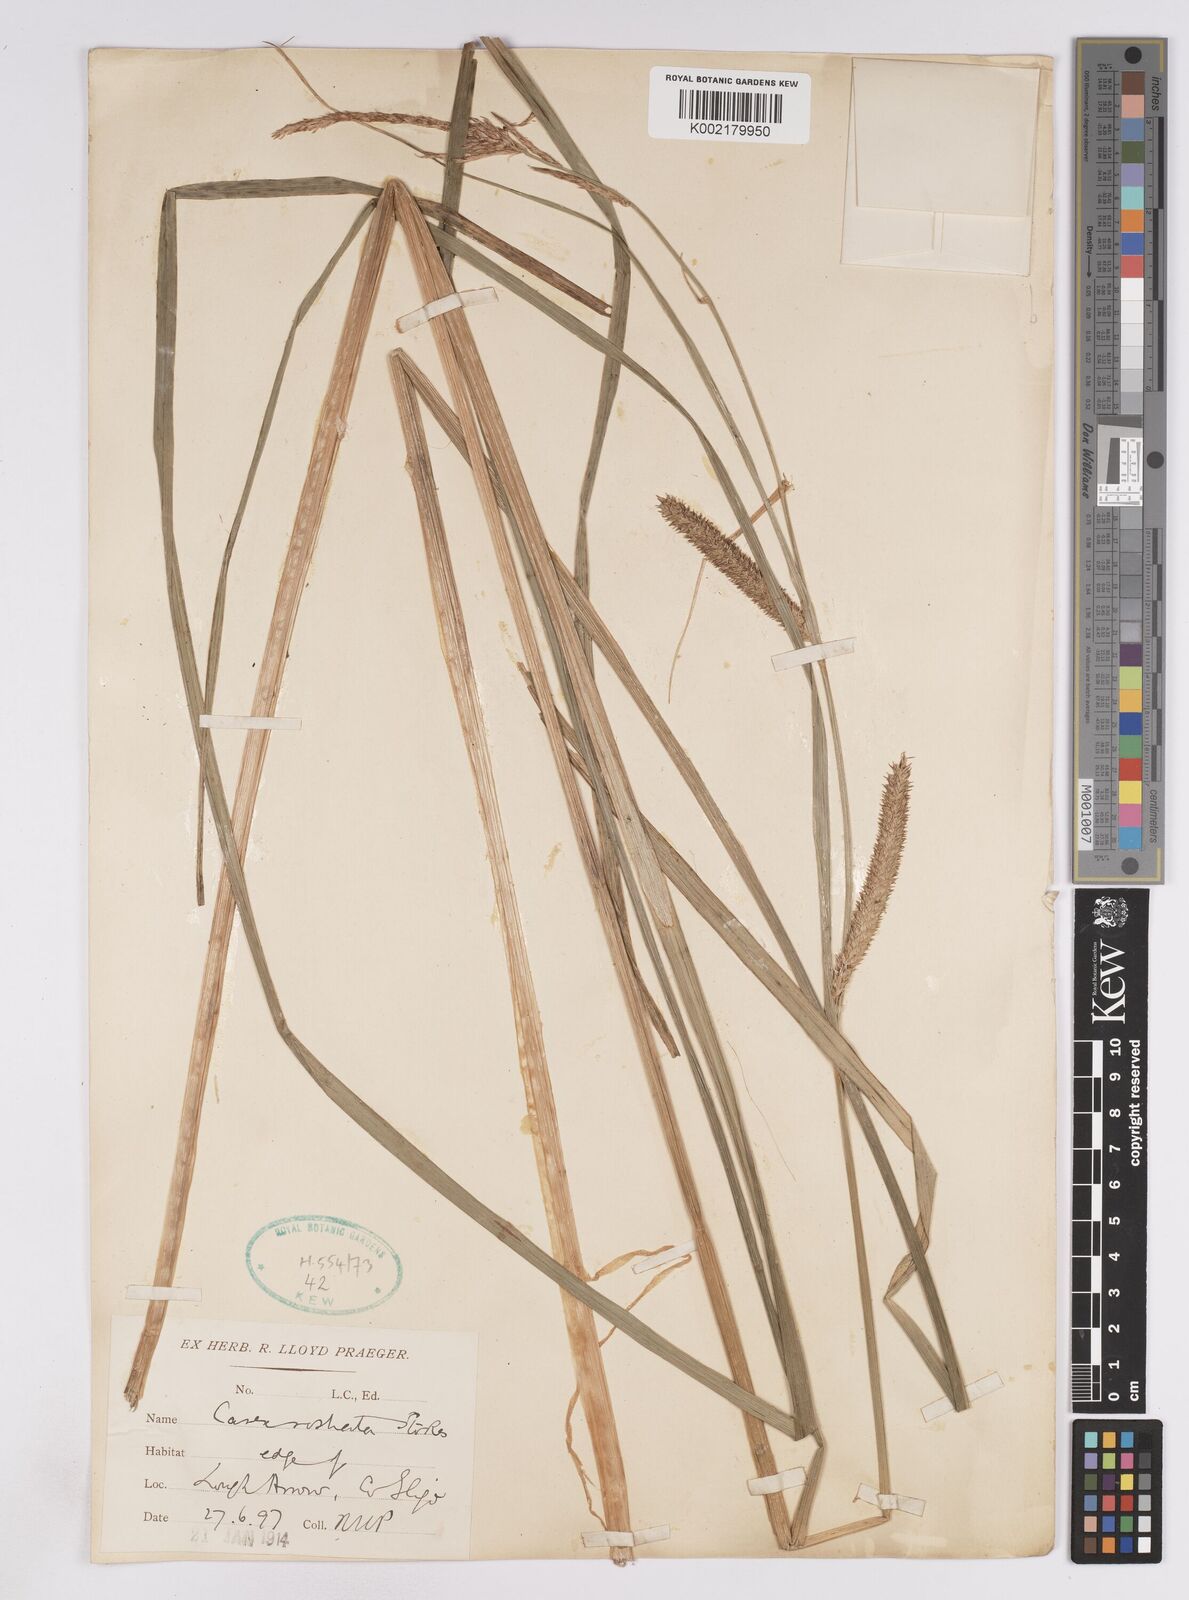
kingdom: Plantae
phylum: Tracheophyta
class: Liliopsida
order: Poales
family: Cyperaceae
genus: Carex
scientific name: Carex utriculata
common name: Beaked sedge
